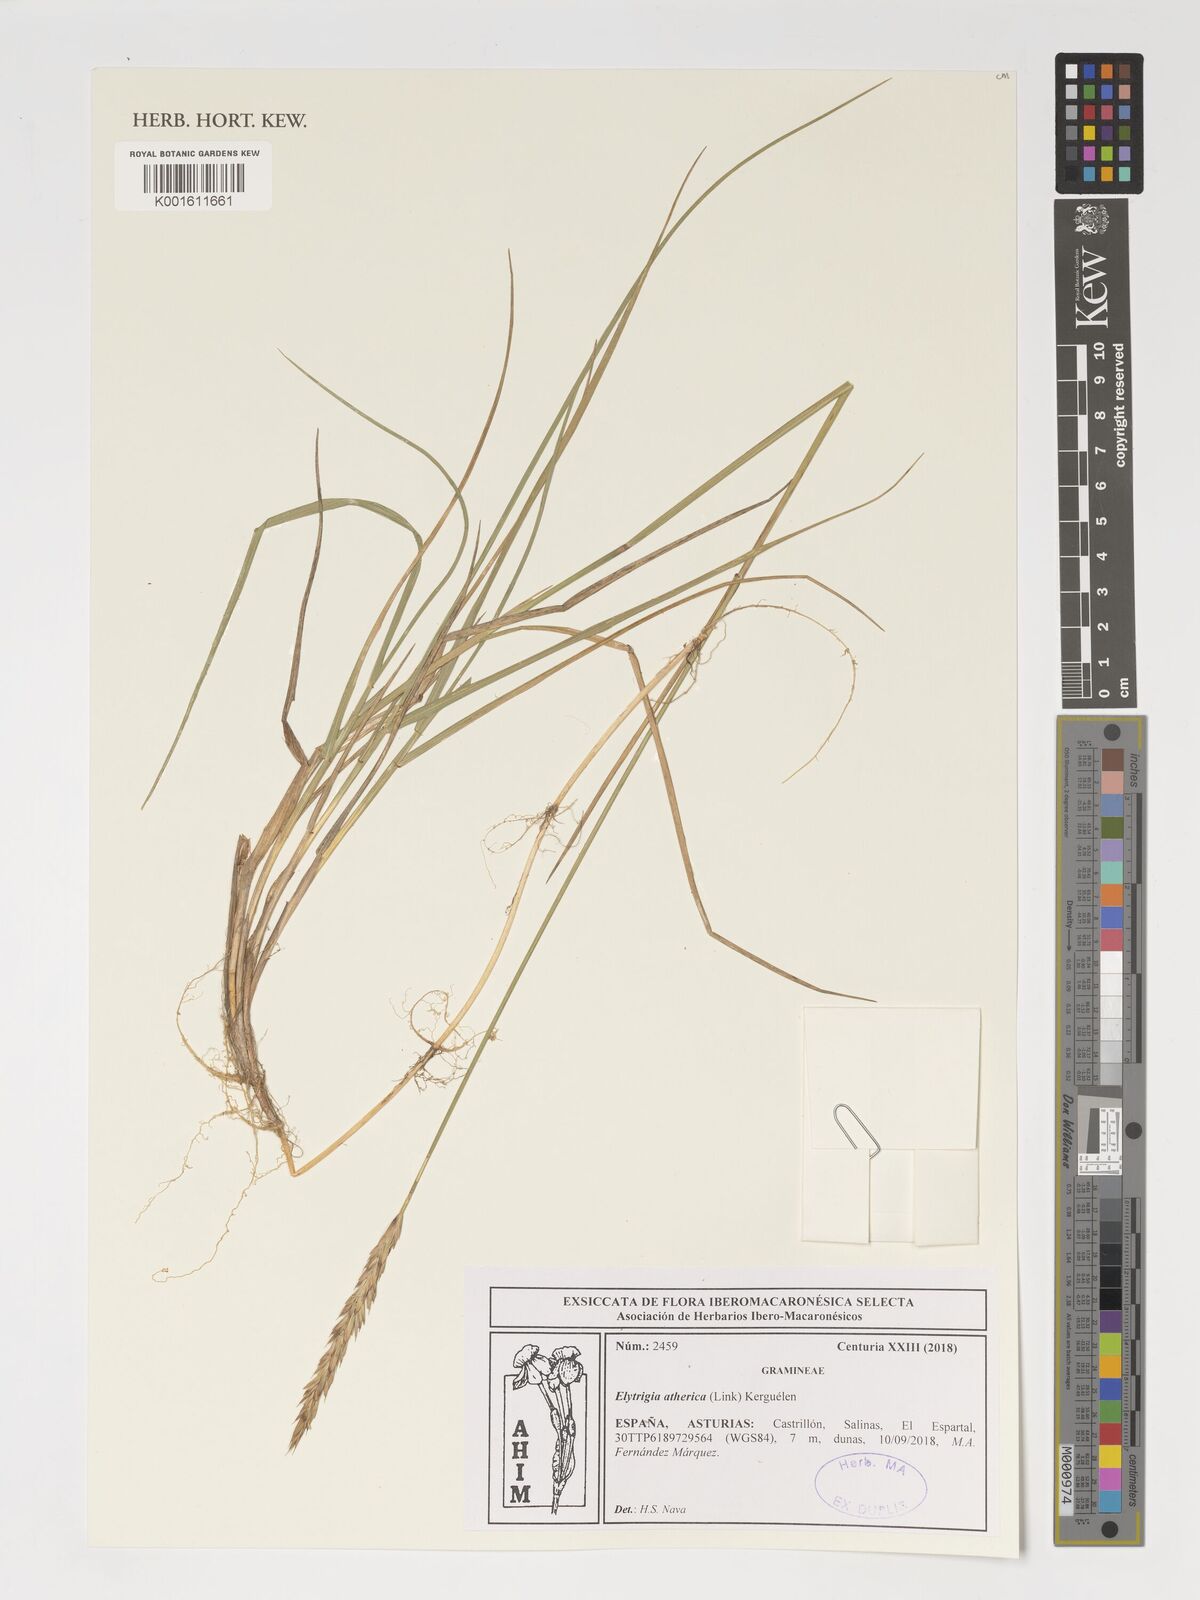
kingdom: Plantae
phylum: Tracheophyta
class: Liliopsida
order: Poales
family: Poaceae
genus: Elymus
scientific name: Elymus athericus
